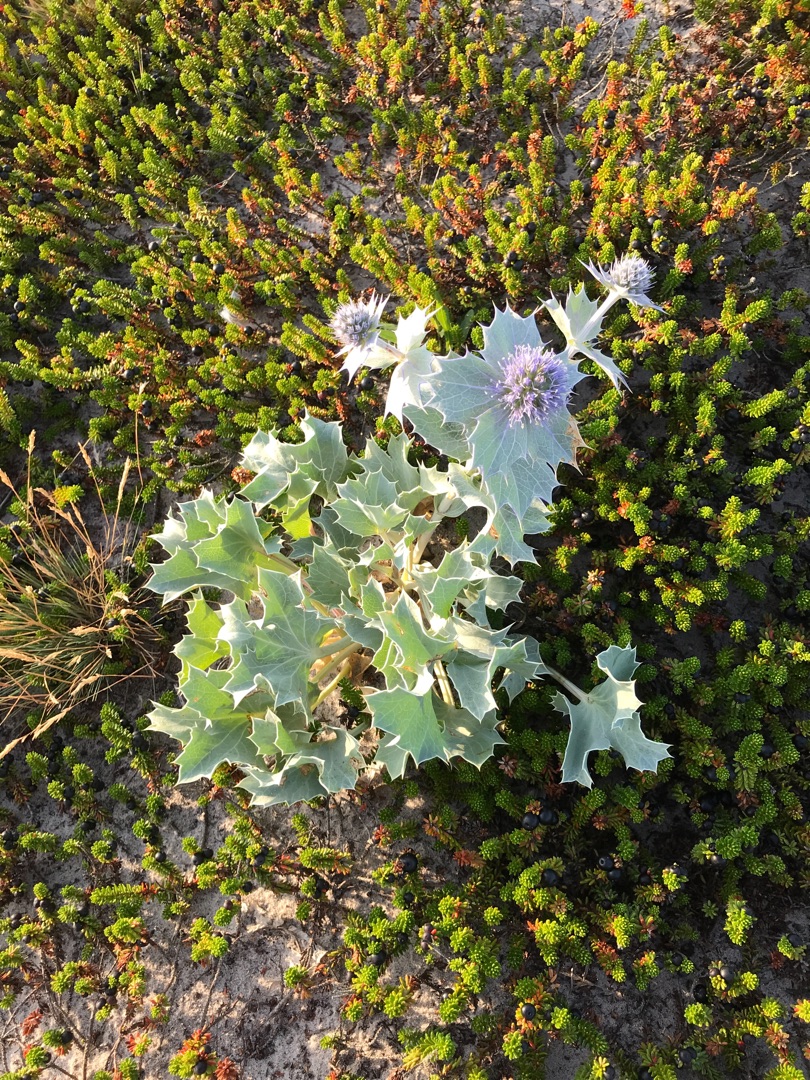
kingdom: Plantae
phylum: Tracheophyta
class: Magnoliopsida
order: Apiales
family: Apiaceae
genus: Eryngium
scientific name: Eryngium maritimum
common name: Strand-mandstro
